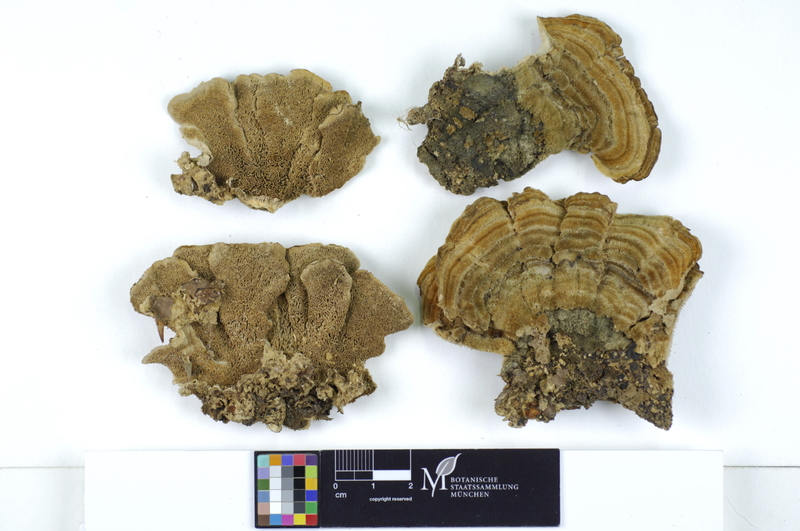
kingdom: Plantae
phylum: Tracheophyta
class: Magnoliopsida
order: Fagales
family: Fagaceae
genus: Fagus
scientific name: Fagus sylvatica
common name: Beech
